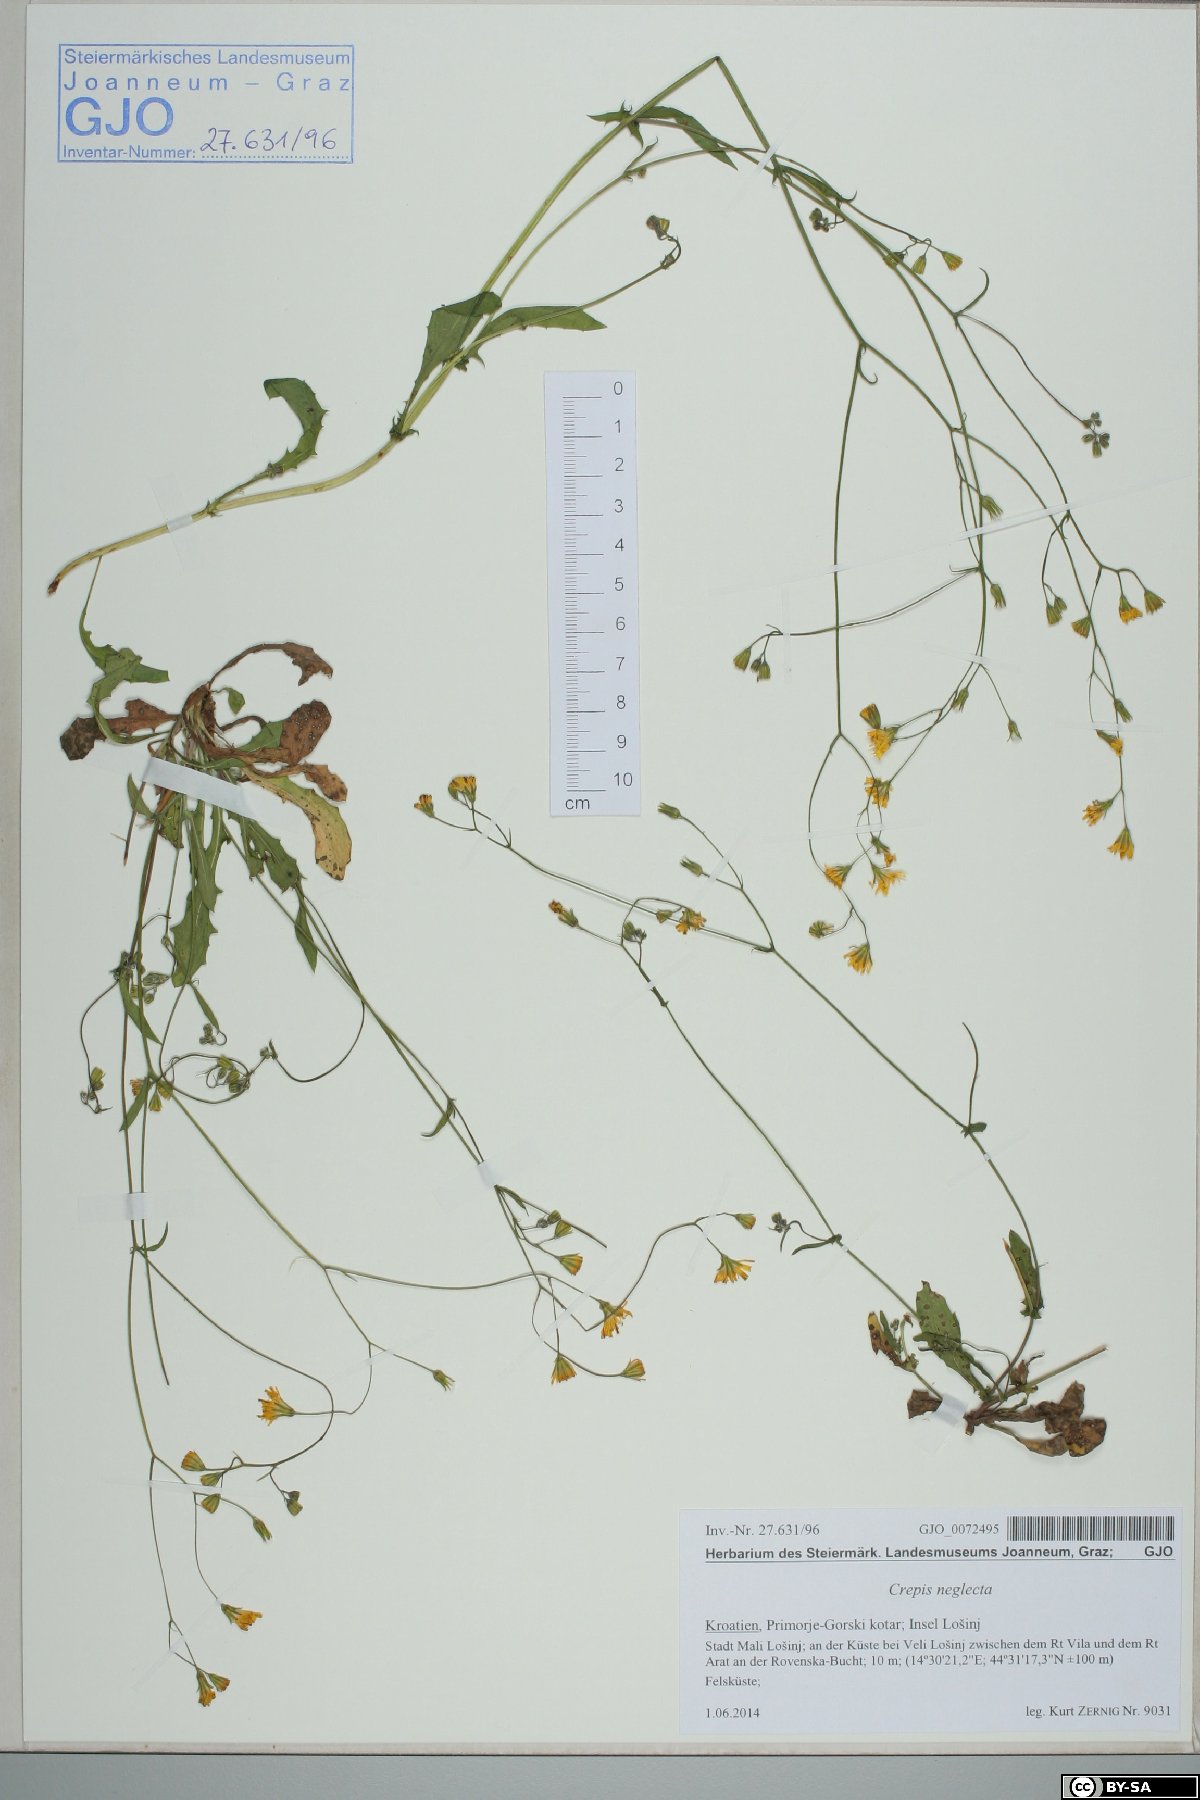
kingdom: Plantae
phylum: Tracheophyta
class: Magnoliopsida
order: Asterales
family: Asteraceae
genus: Crepis
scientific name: Crepis neglecta
